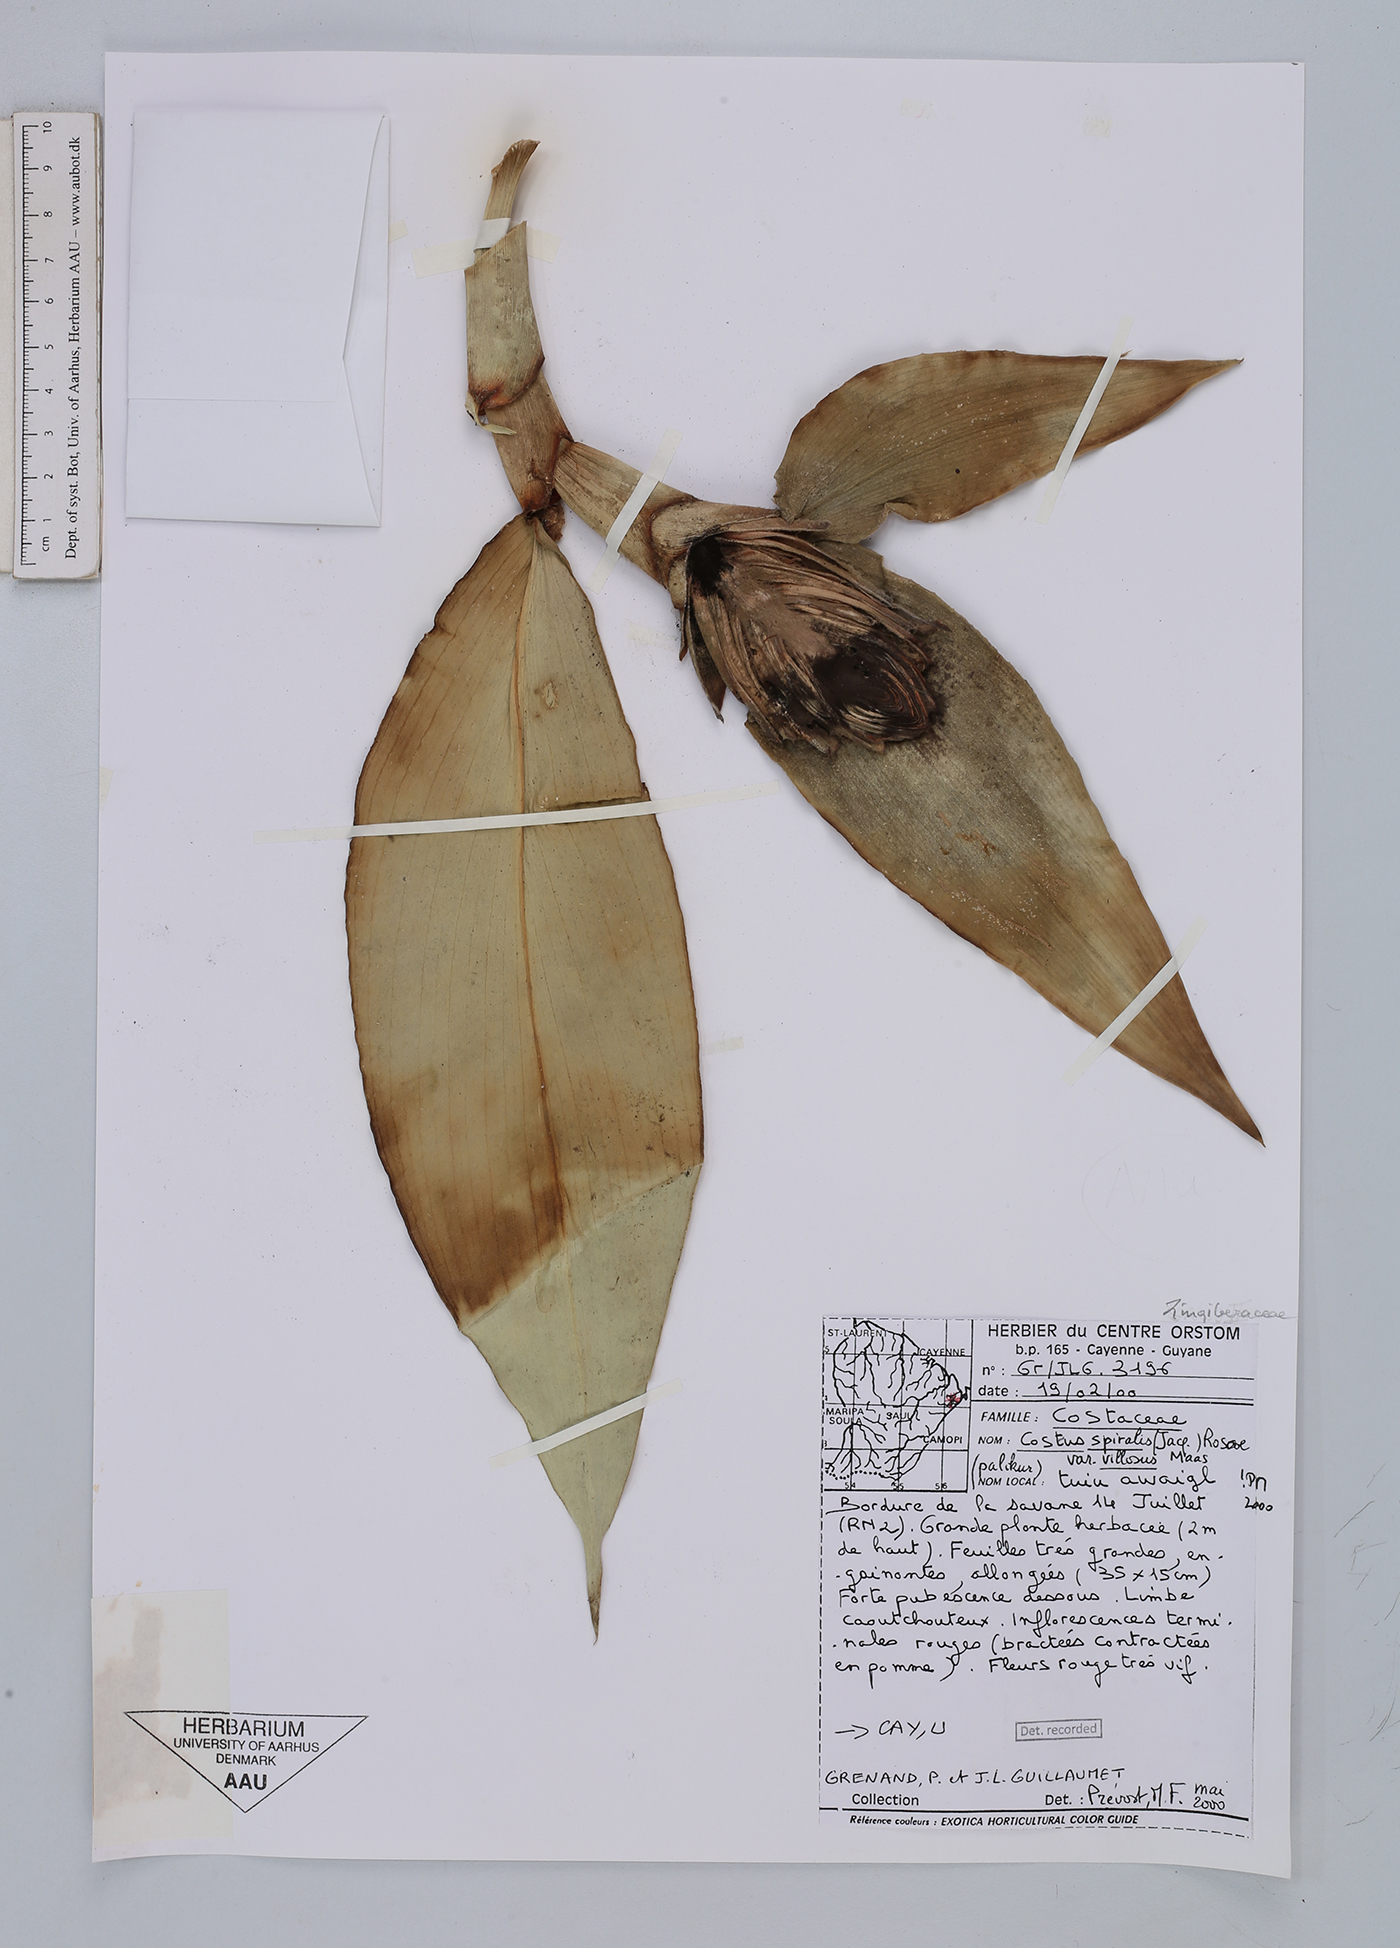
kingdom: Plantae
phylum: Tracheophyta
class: Liliopsida
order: Zingiberales
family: Costaceae
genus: Costus
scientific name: Costus spiralis
